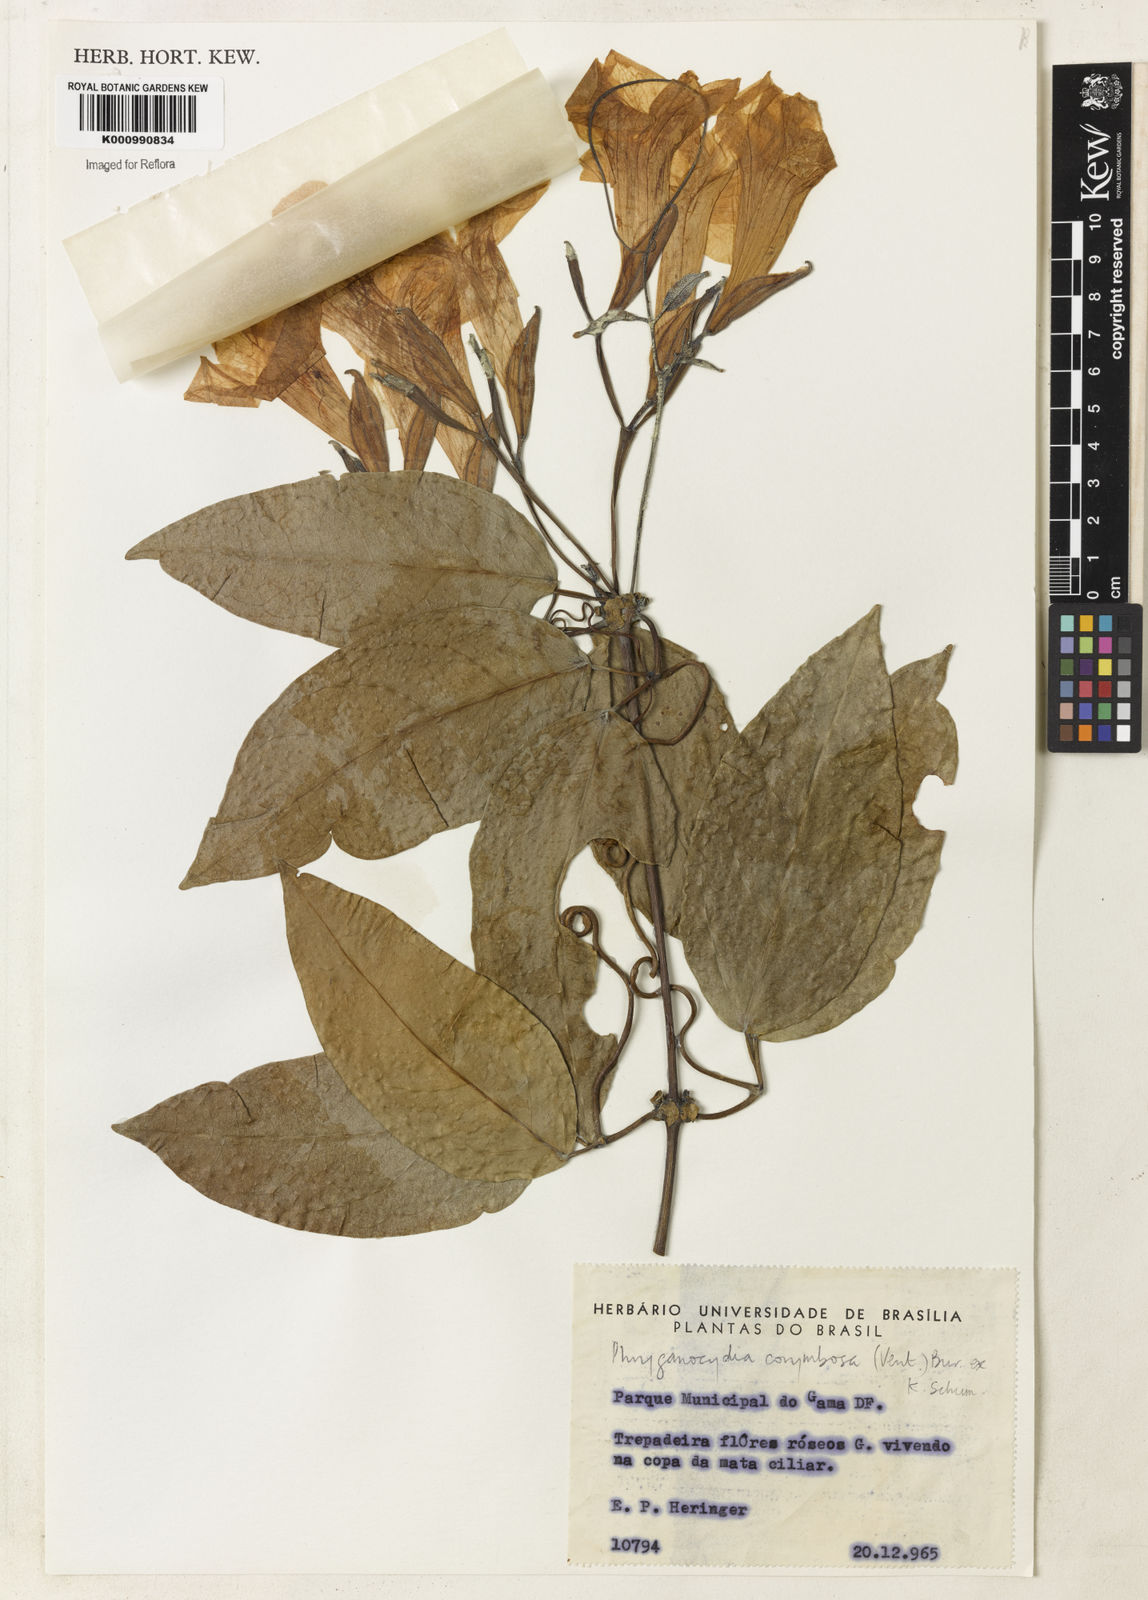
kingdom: Plantae
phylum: Tracheophyta
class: Magnoliopsida
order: Lamiales
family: Bignoniaceae
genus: Bignonia
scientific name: Bignonia corymbosa
